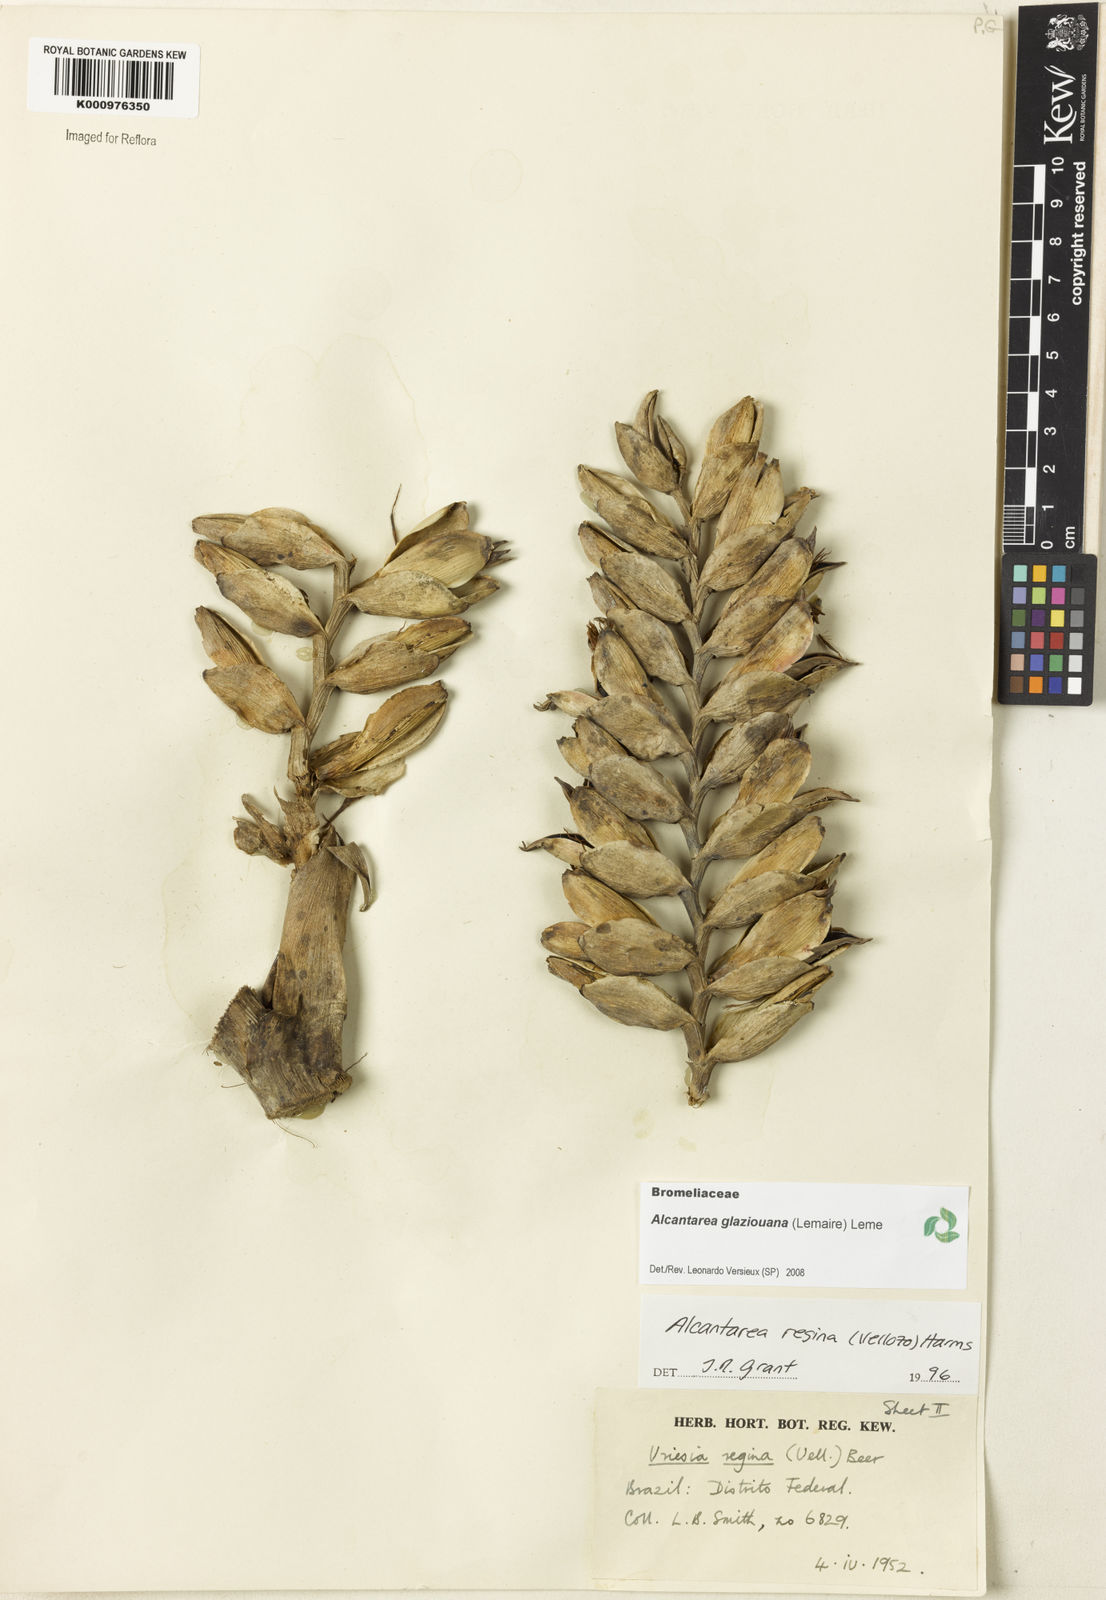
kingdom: Plantae
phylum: Tracheophyta
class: Liliopsida
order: Poales
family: Bromeliaceae
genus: Vriesea
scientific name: Vriesea
